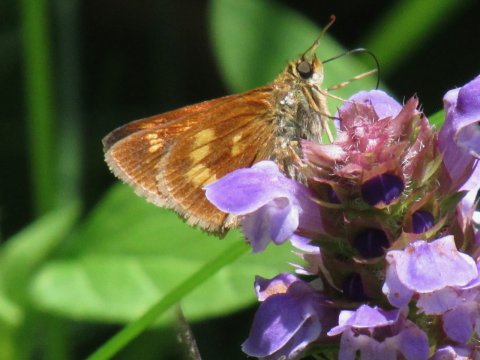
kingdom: Animalia
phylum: Arthropoda
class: Insecta
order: Lepidoptera
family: Hesperiidae
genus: Polites
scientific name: Polites
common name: Long Dash Skipper
